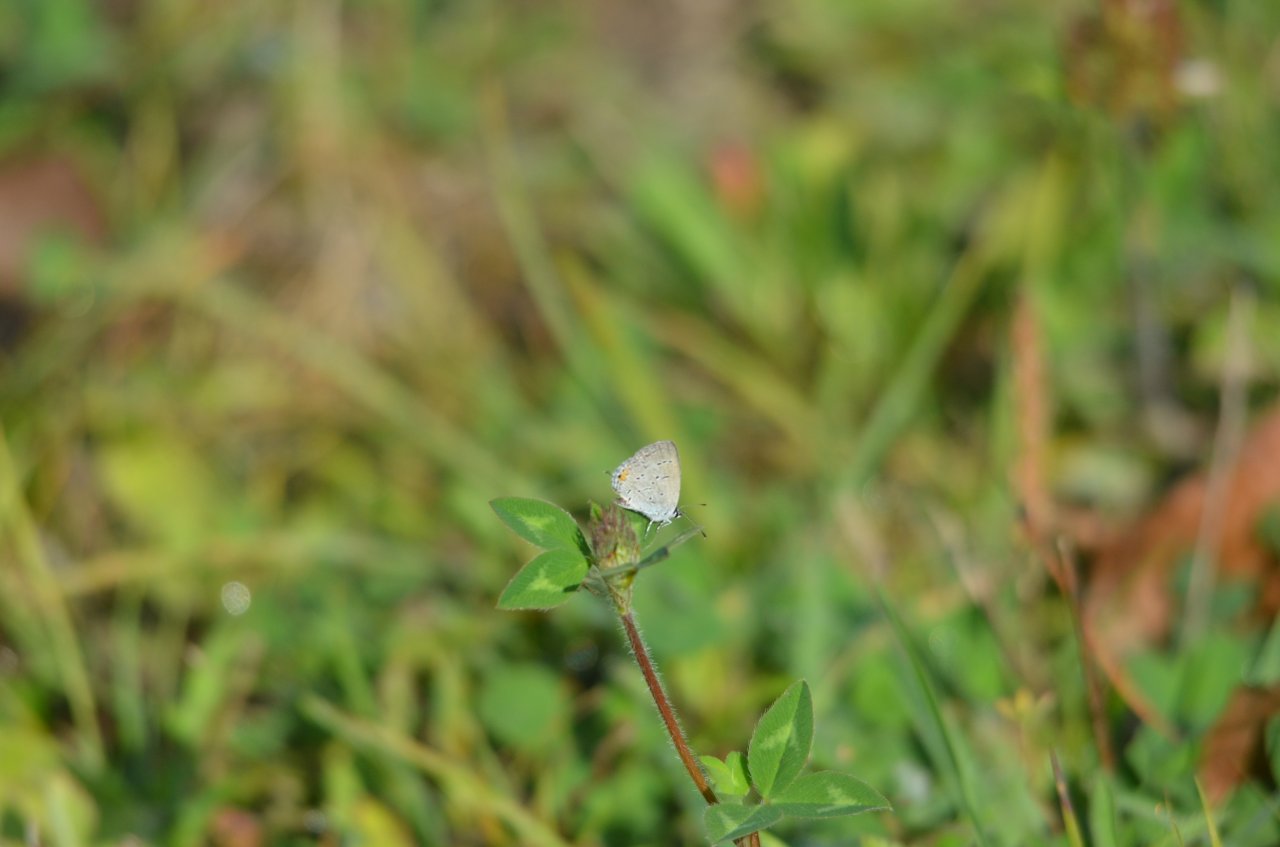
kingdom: Animalia
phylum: Arthropoda
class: Insecta
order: Lepidoptera
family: Lycaenidae
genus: Elkalyce
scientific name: Elkalyce comyntas
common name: Eastern Tailed-Blue
